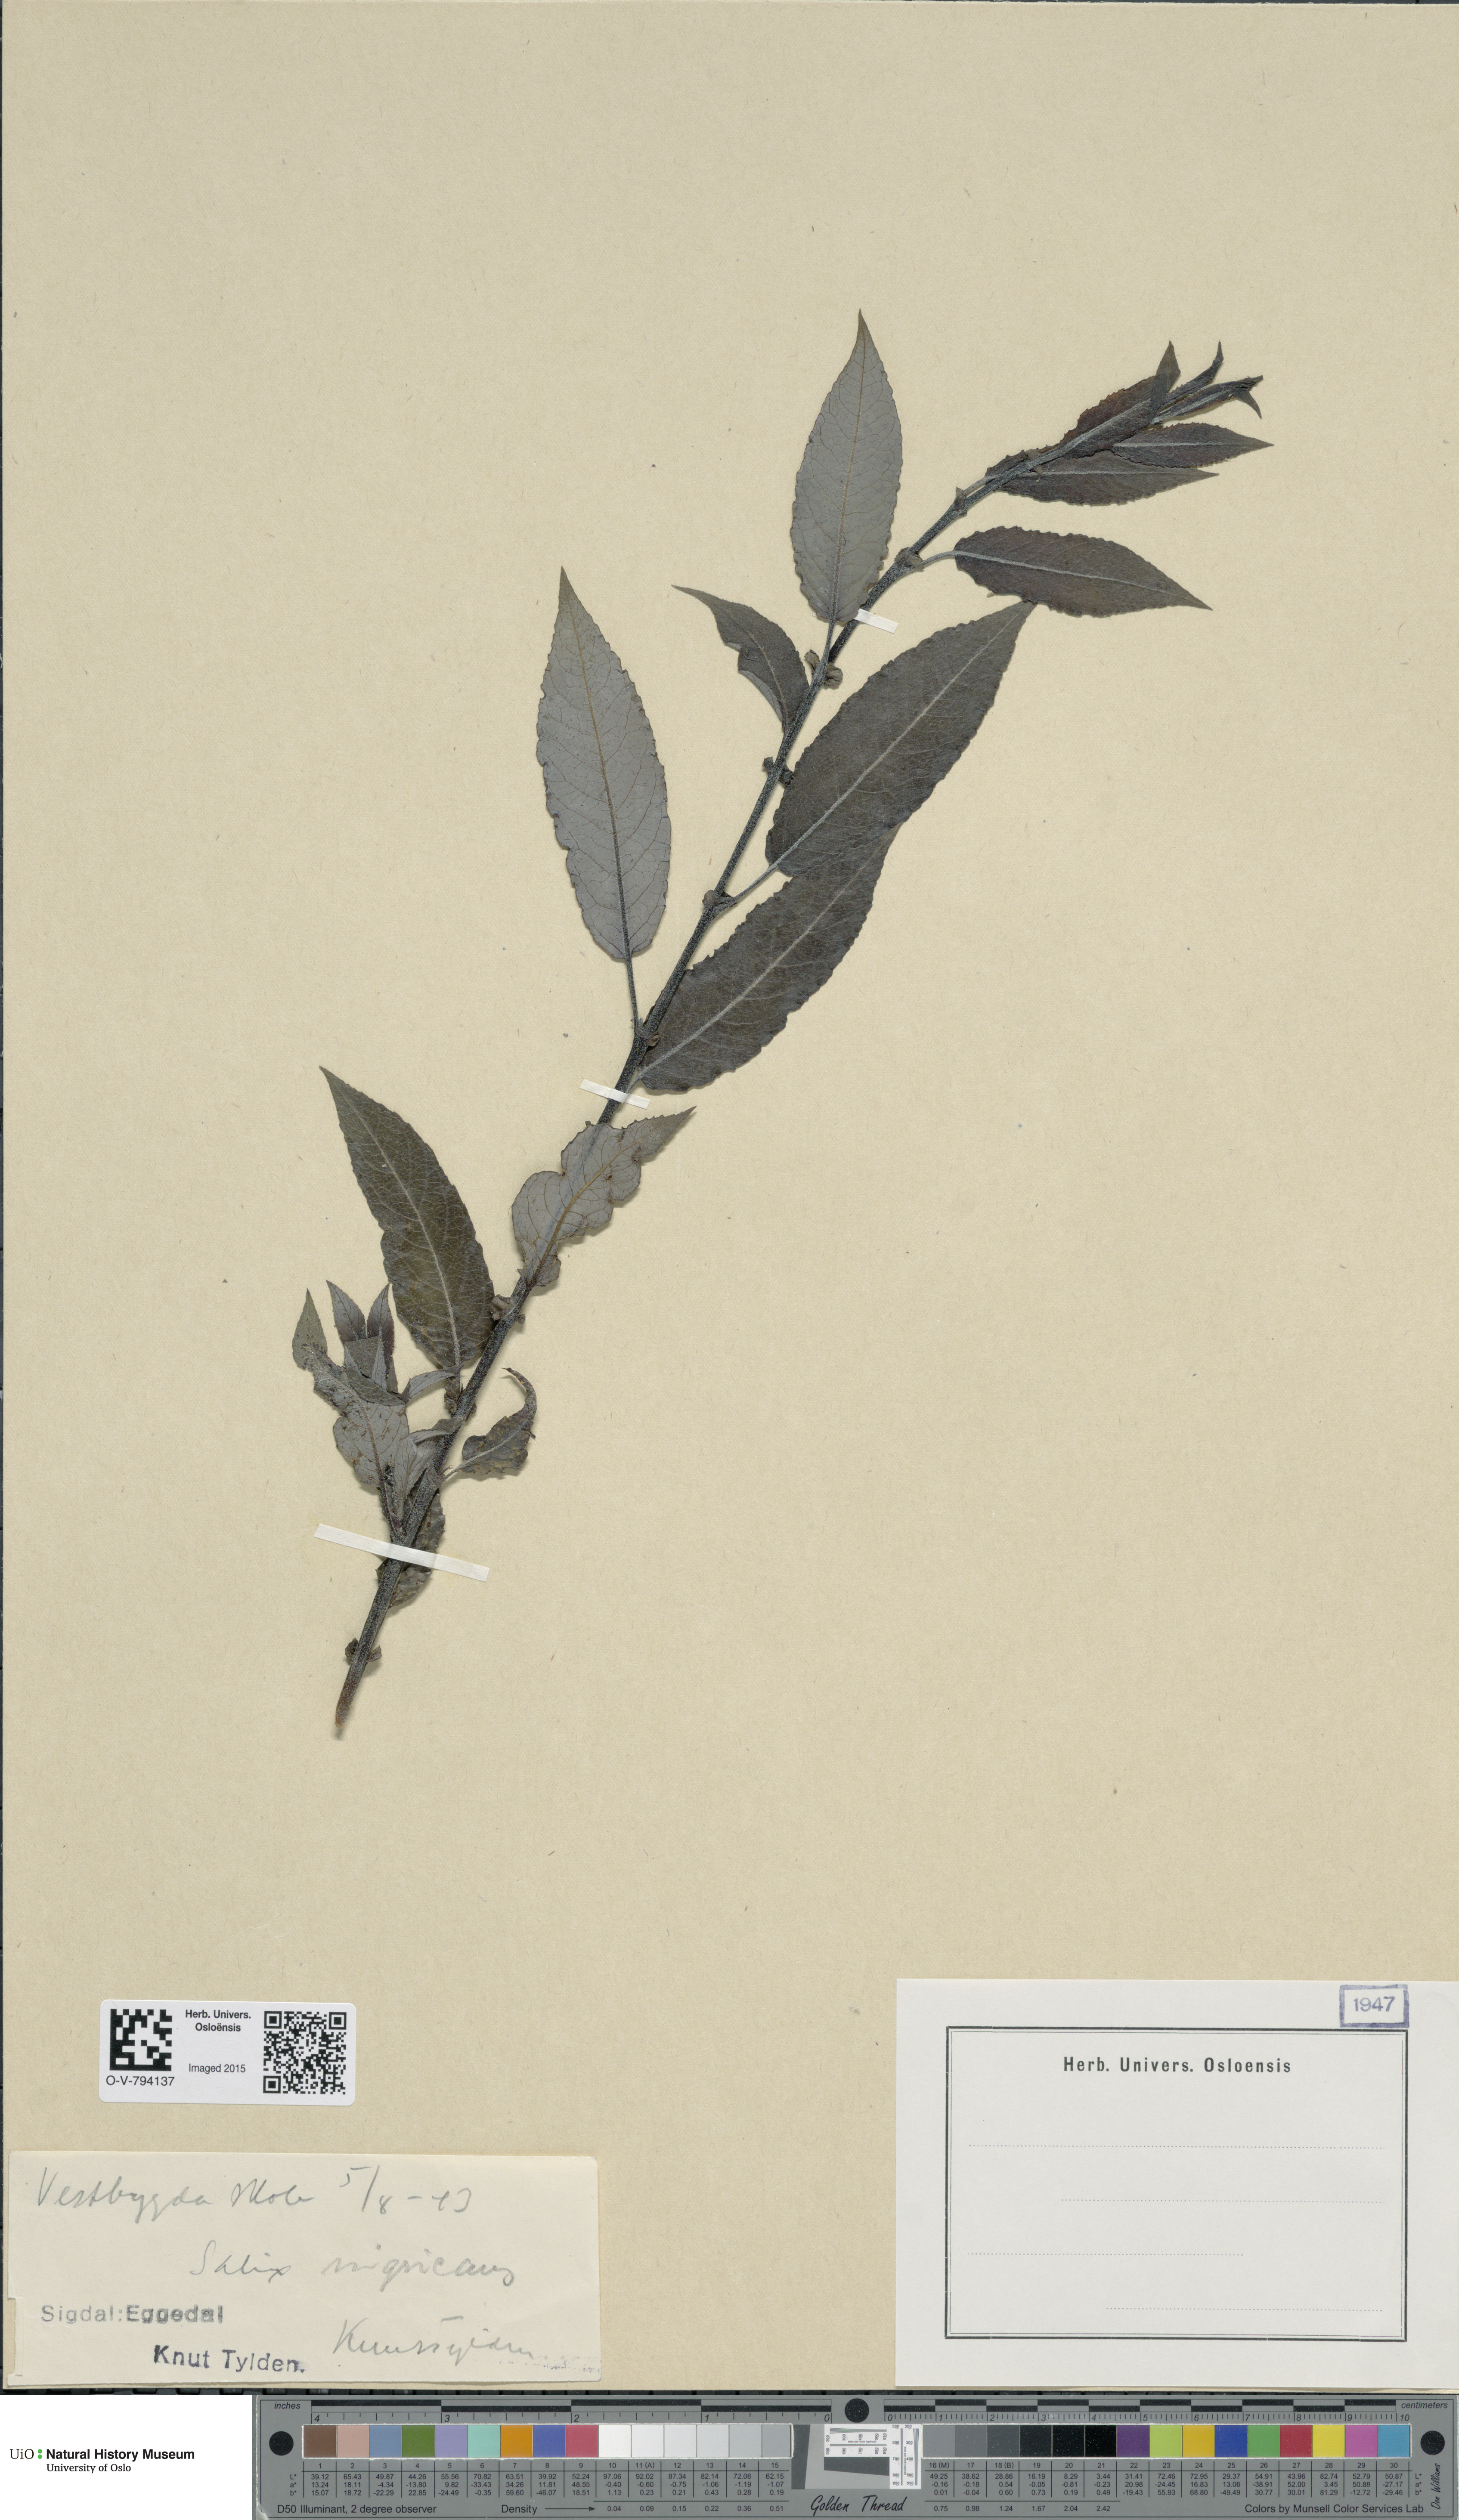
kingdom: Plantae
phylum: Tracheophyta
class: Magnoliopsida
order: Malpighiales
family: Salicaceae
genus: Salix
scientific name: Salix myrsinifolia
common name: Dark-leaved willow
